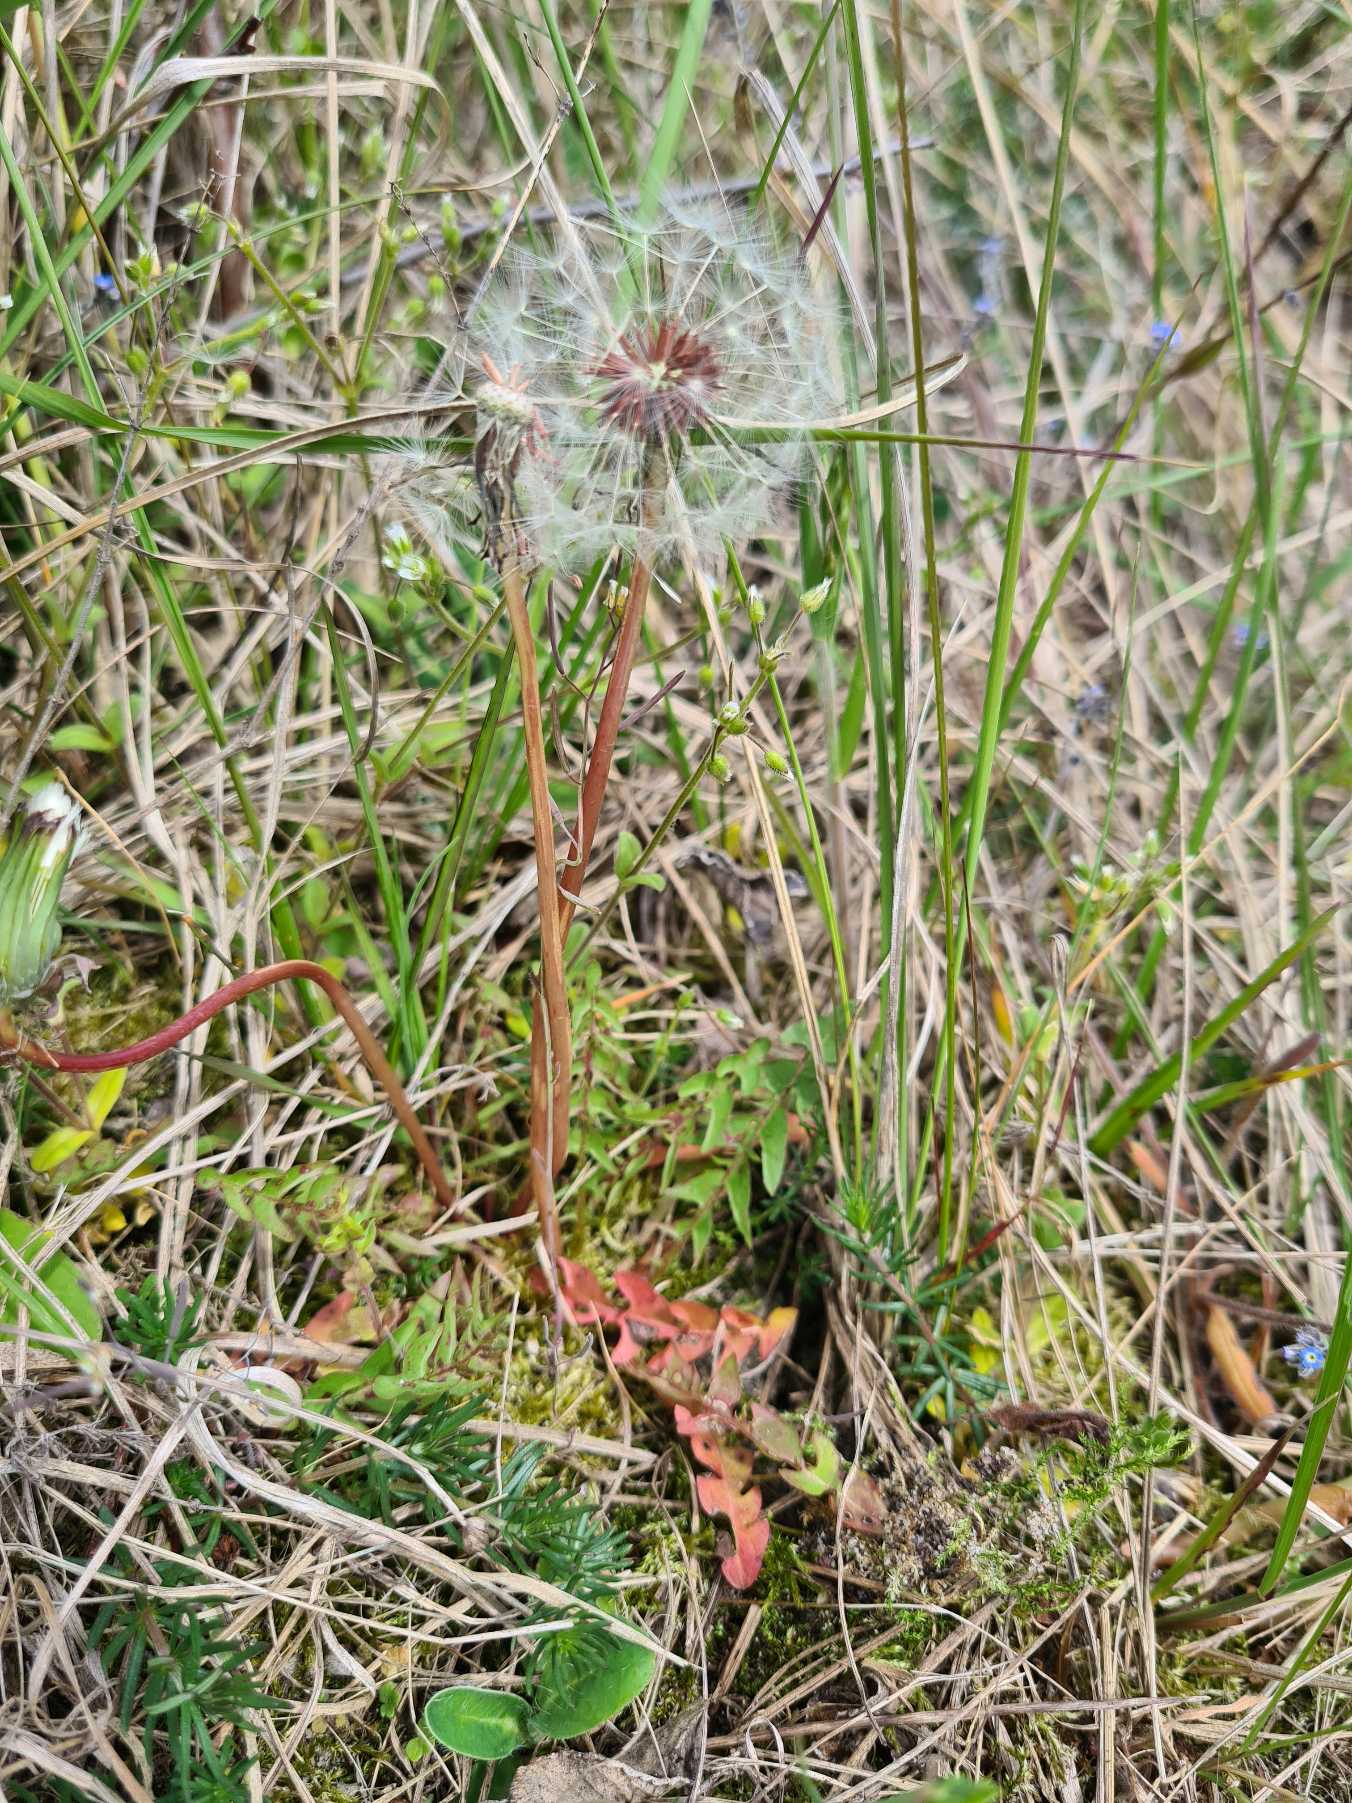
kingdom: Plantae
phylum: Tracheophyta
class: Magnoliopsida
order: Asterales
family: Asteraceae
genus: Taraxacum
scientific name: Taraxacum
